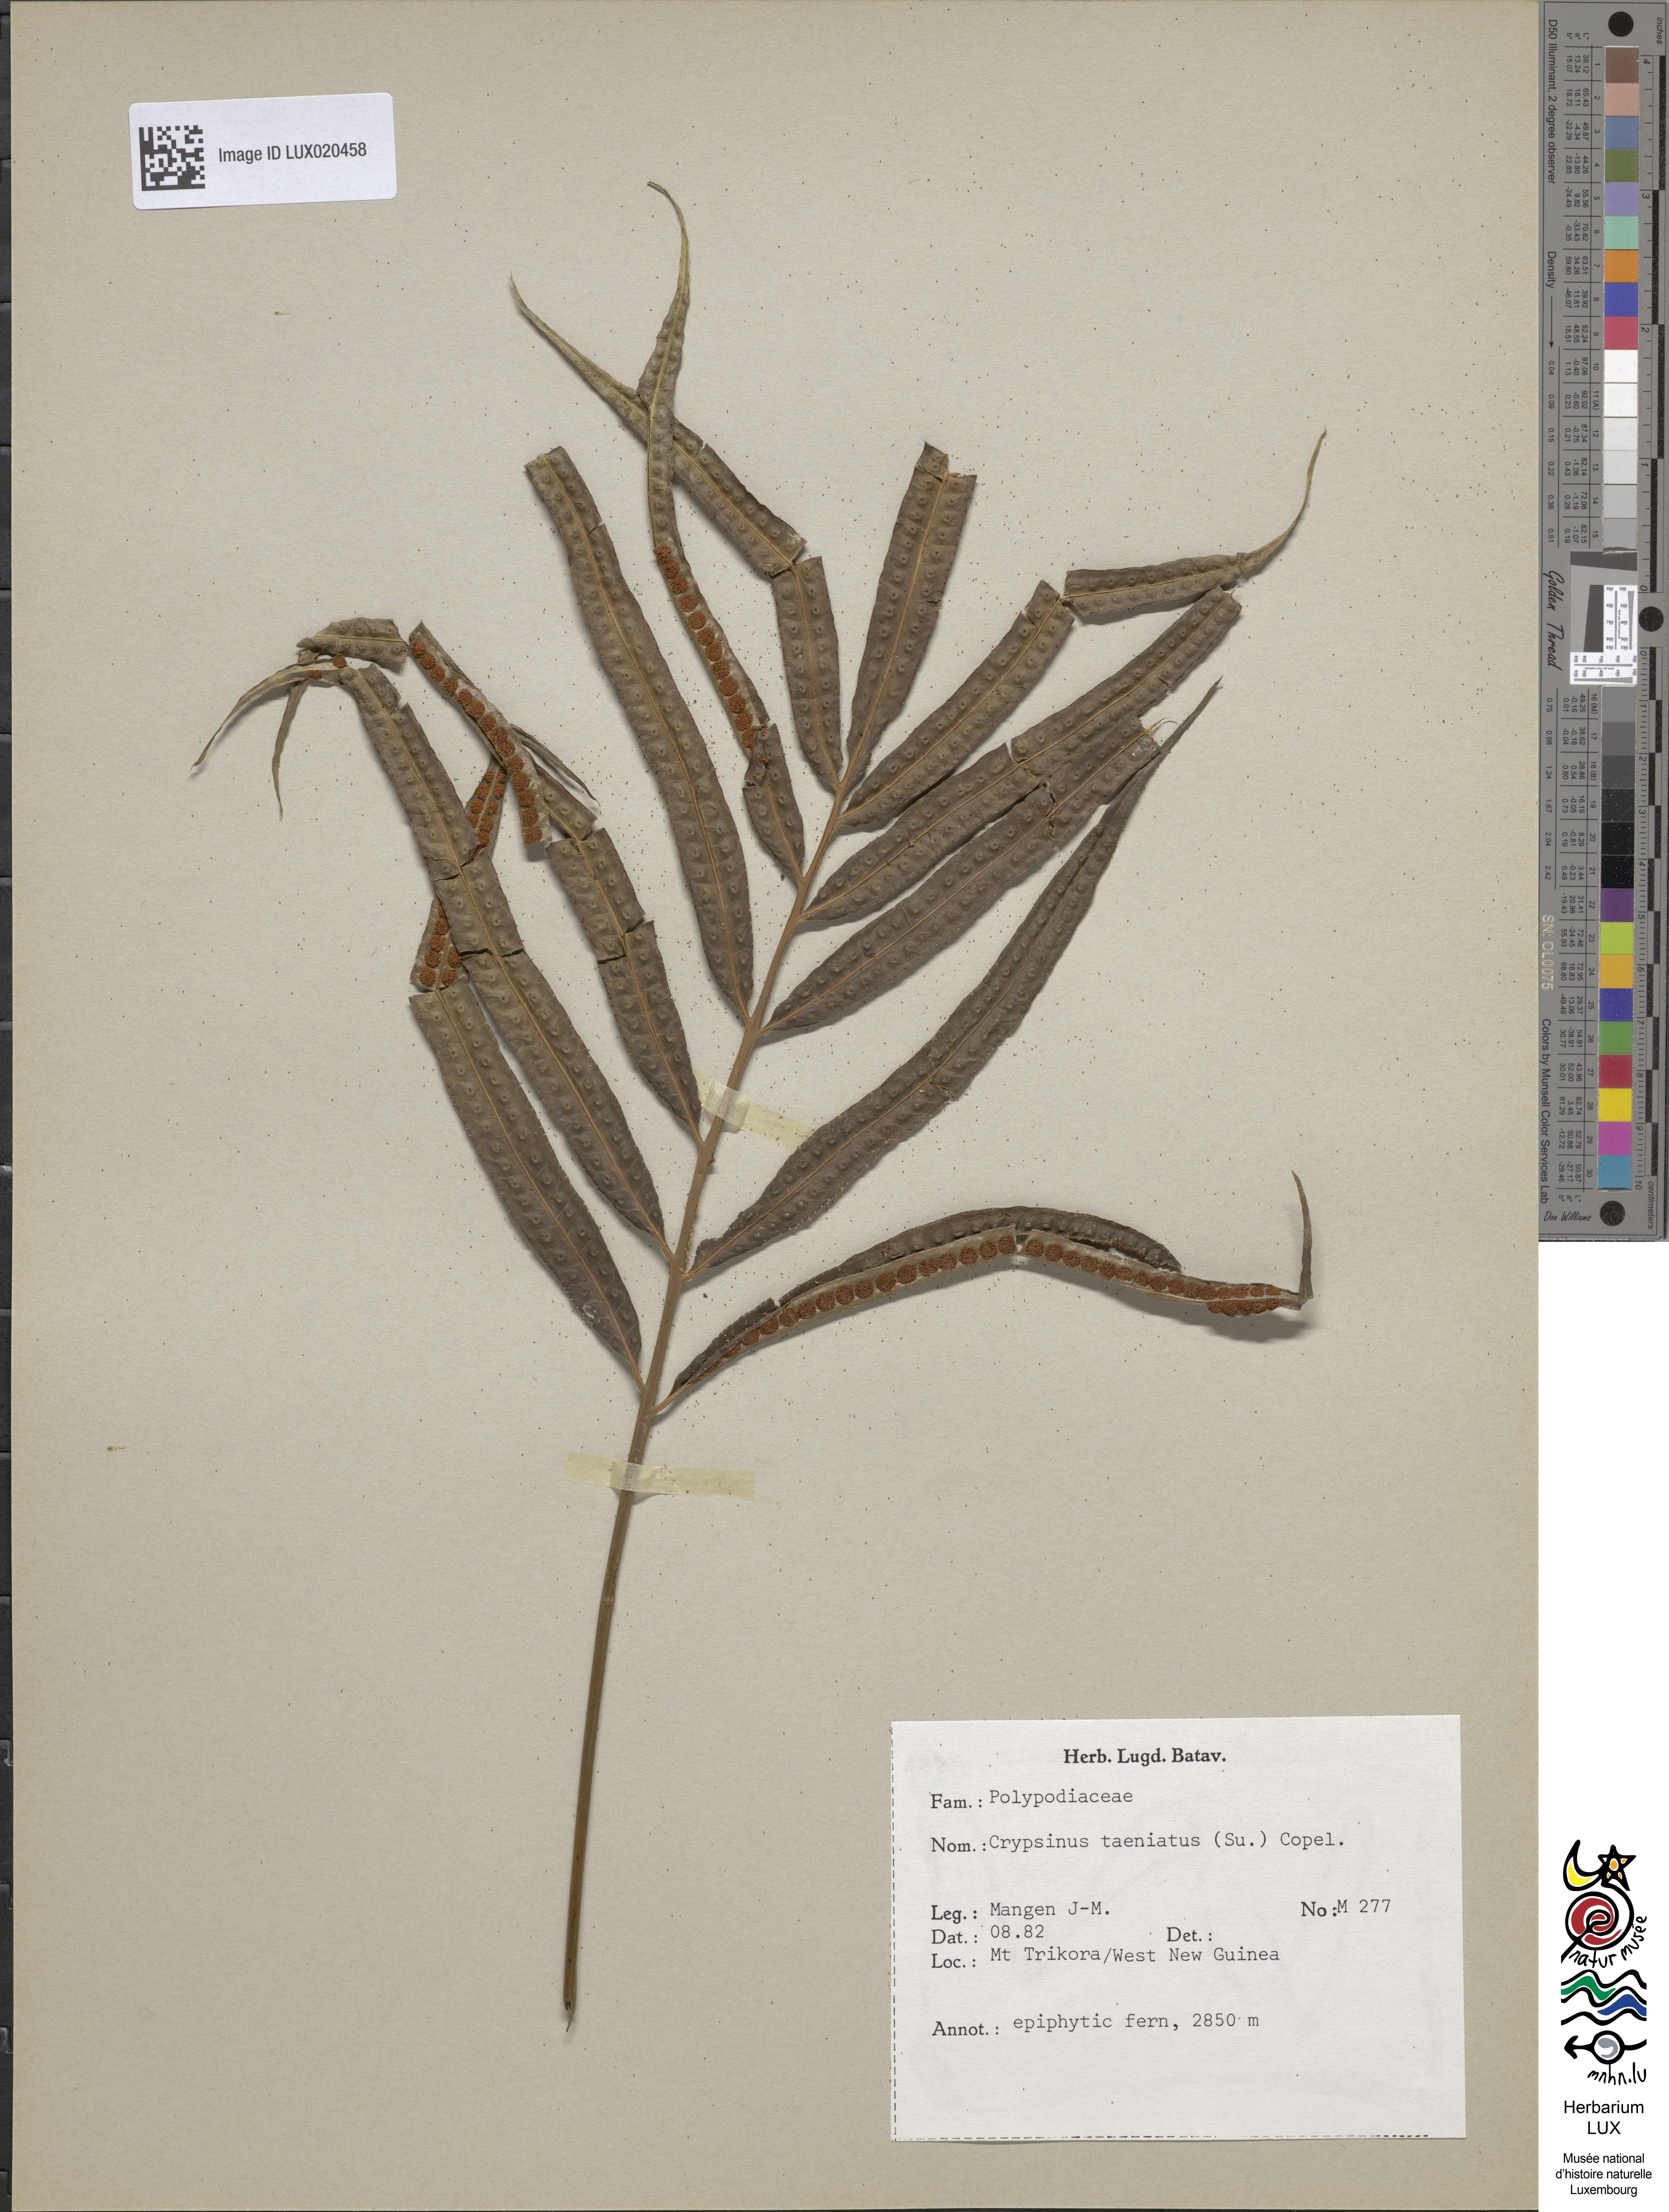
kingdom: Plantae
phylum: Tracheophyta
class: Polypodiopsida
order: Polypodiales
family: Polypodiaceae
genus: Selliguea
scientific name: Selliguea taeniata
